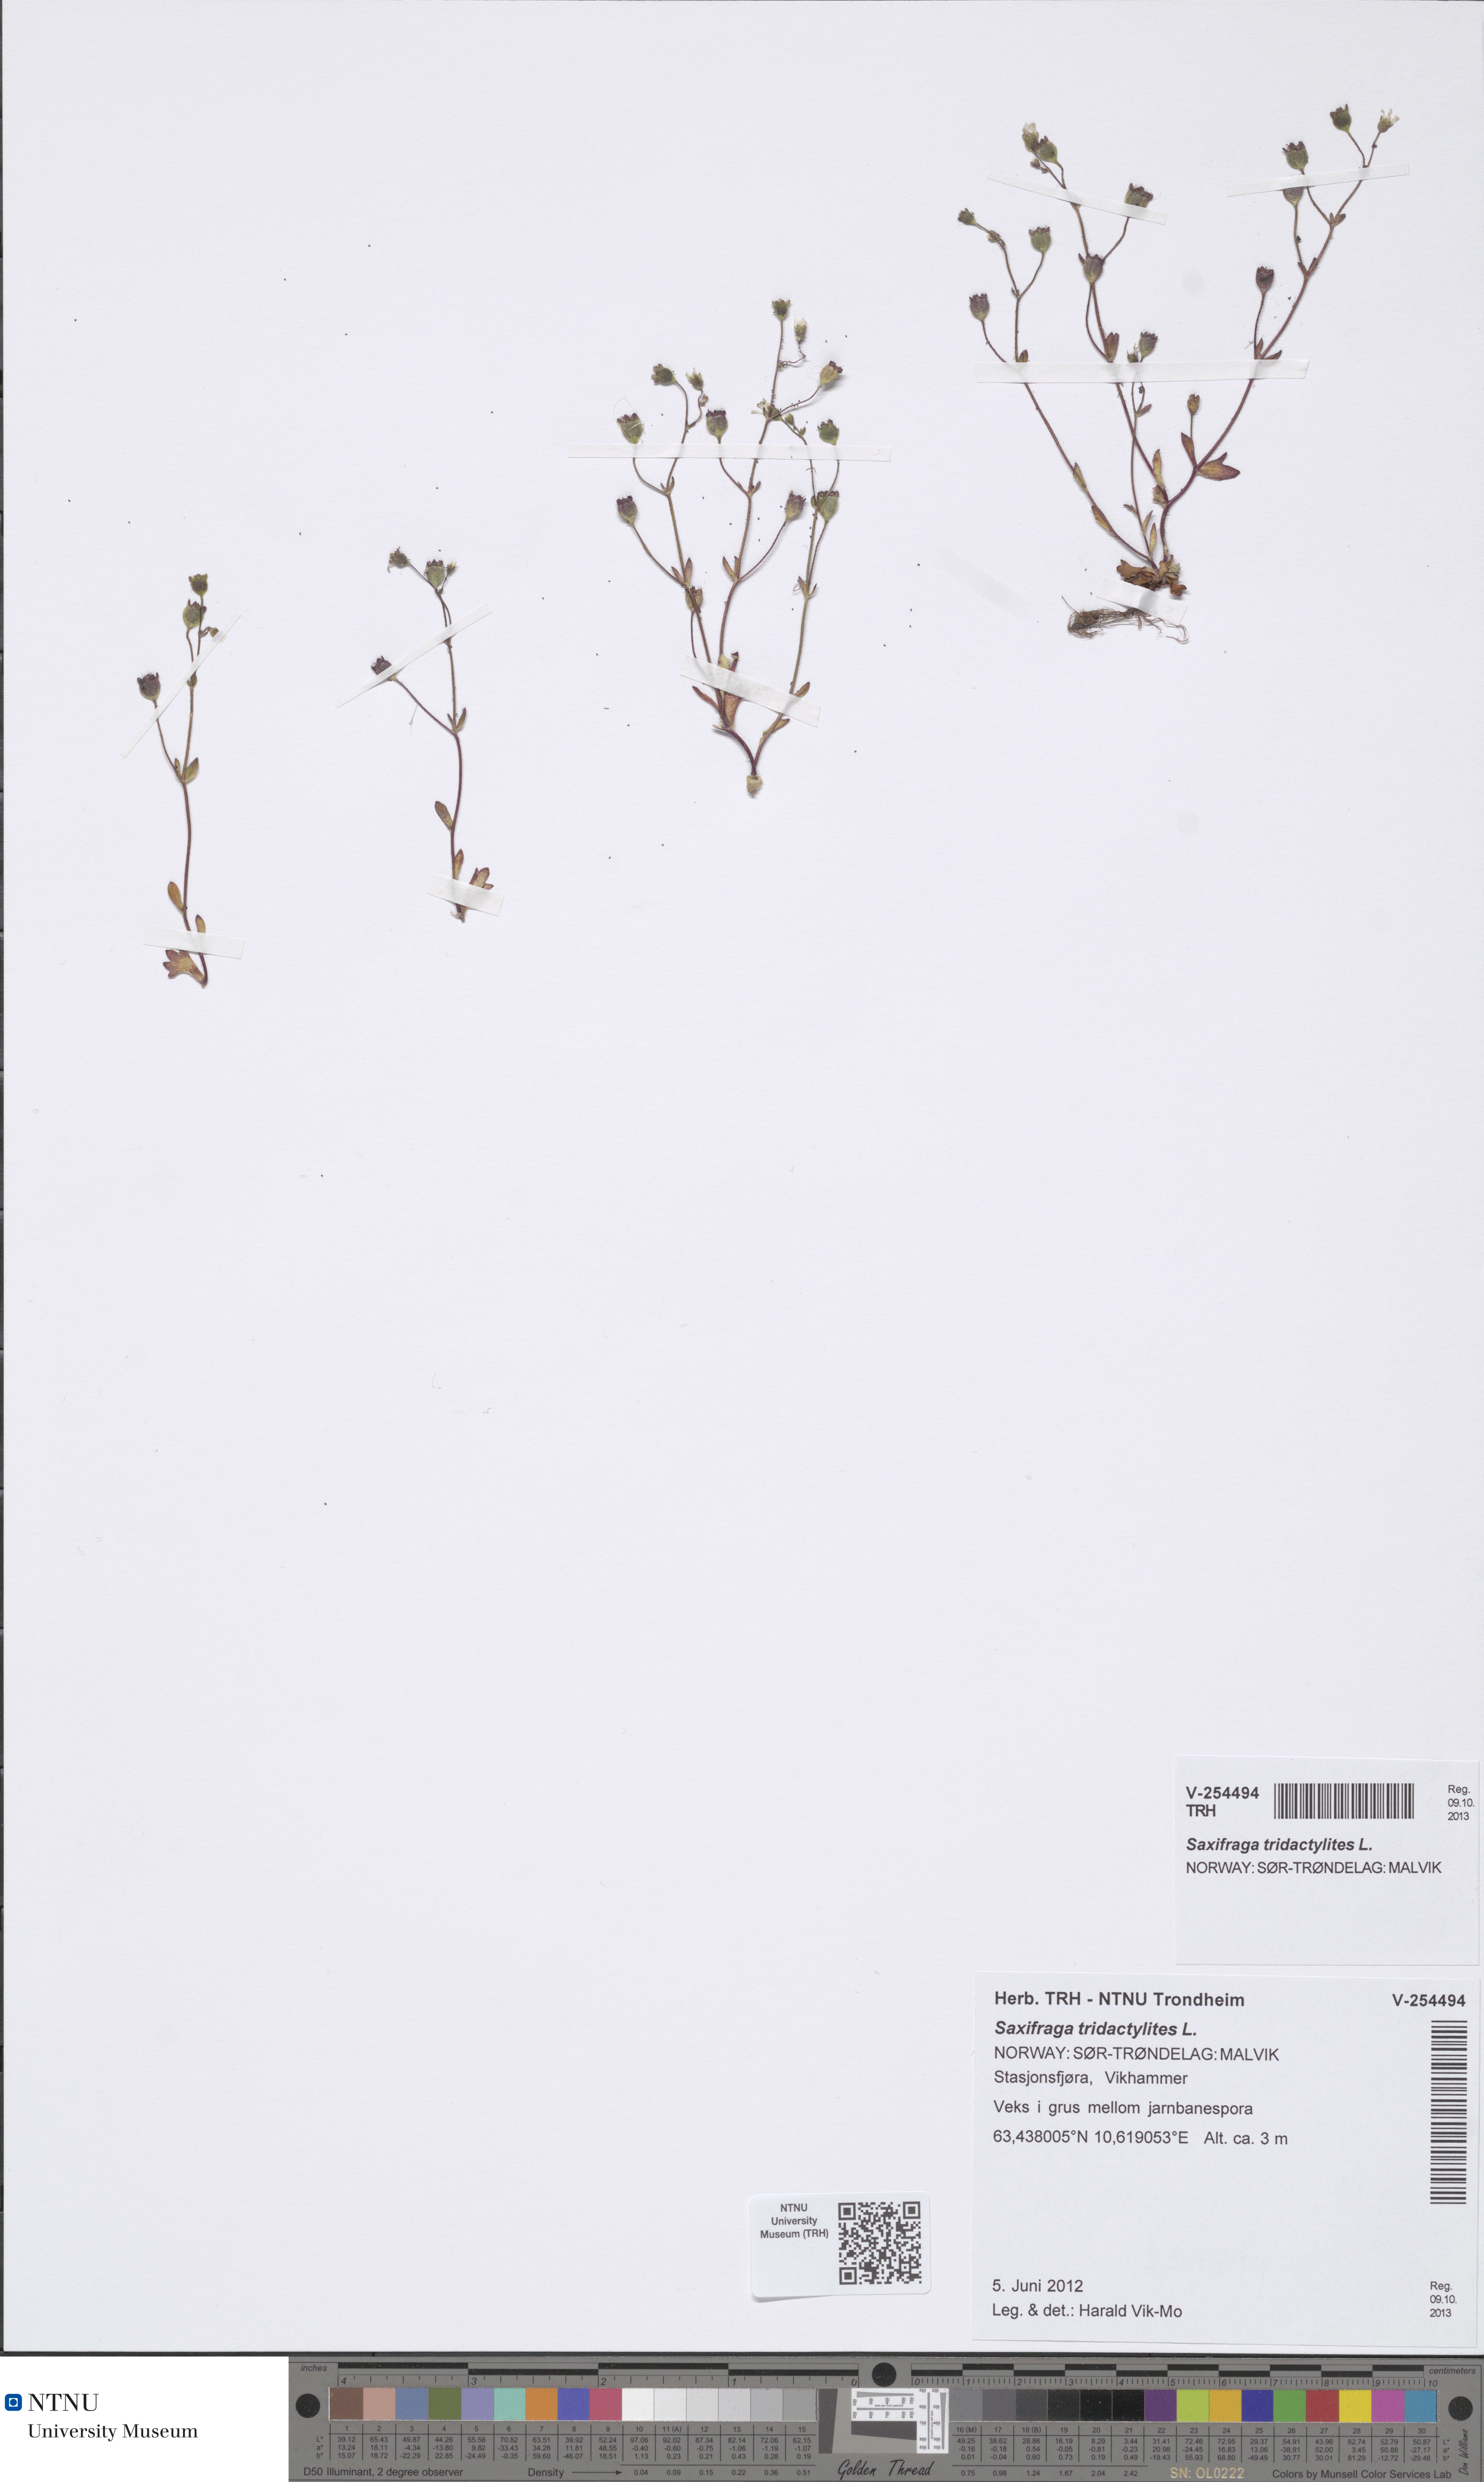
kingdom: Plantae
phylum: Tracheophyta
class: Magnoliopsida
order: Saxifragales
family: Saxifragaceae
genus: Saxifraga
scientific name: Saxifraga tridactylites
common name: Rue-leaved saxifrage
